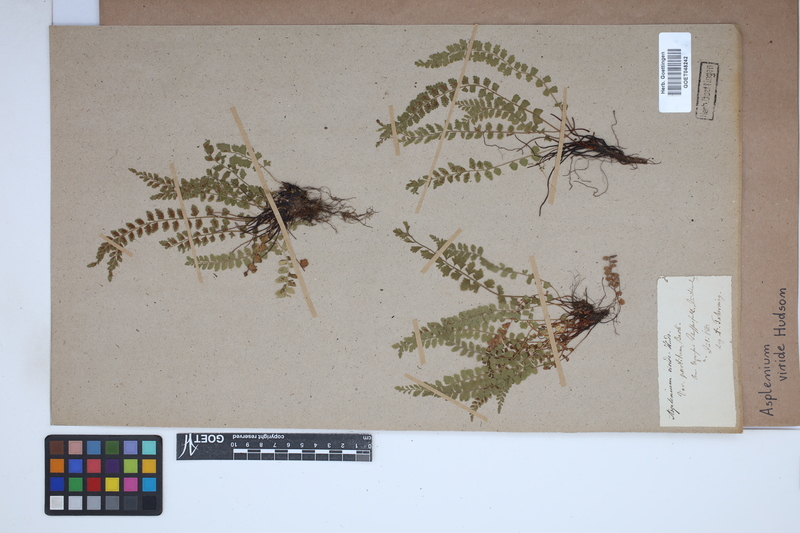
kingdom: Plantae
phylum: Tracheophyta
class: Polypodiopsida
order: Polypodiales
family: Aspleniaceae
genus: Asplenium
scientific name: Asplenium viride
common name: Green spleenwort
